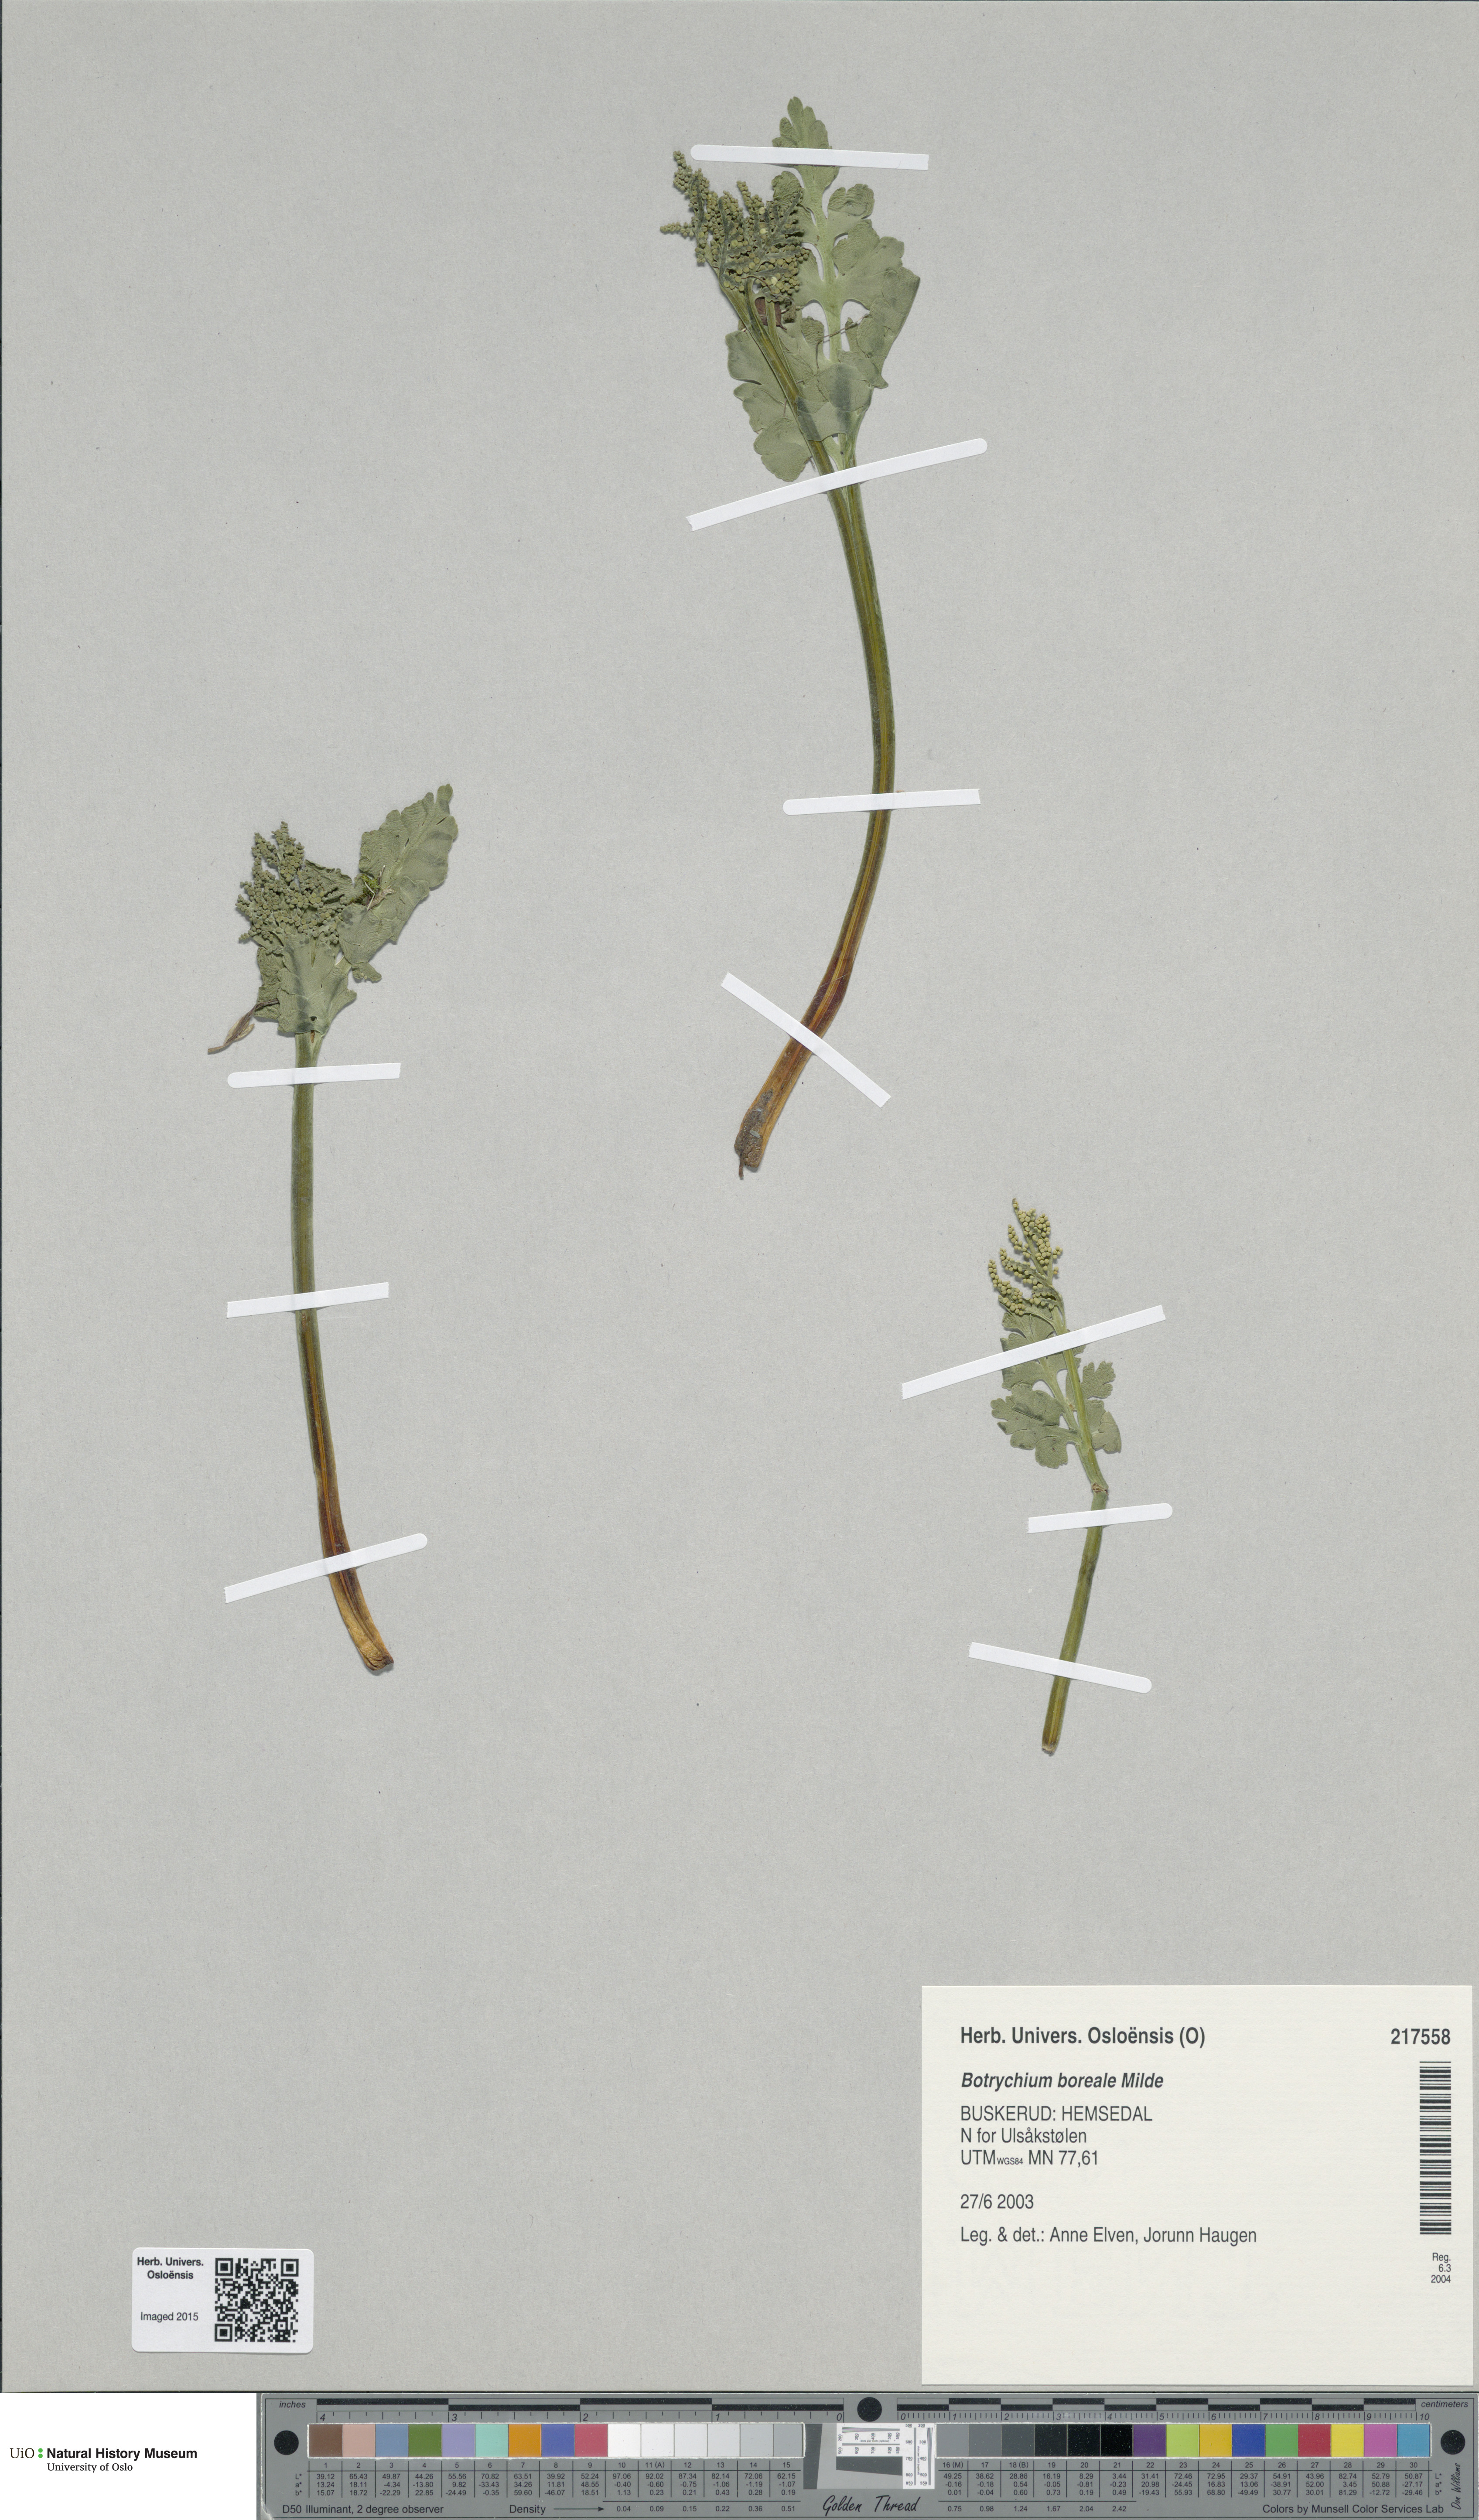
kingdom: Plantae
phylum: Tracheophyta
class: Polypodiopsida
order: Ophioglossales
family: Ophioglossaceae
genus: Botrychium
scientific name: Botrychium boreale
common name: Boreal moonwort
